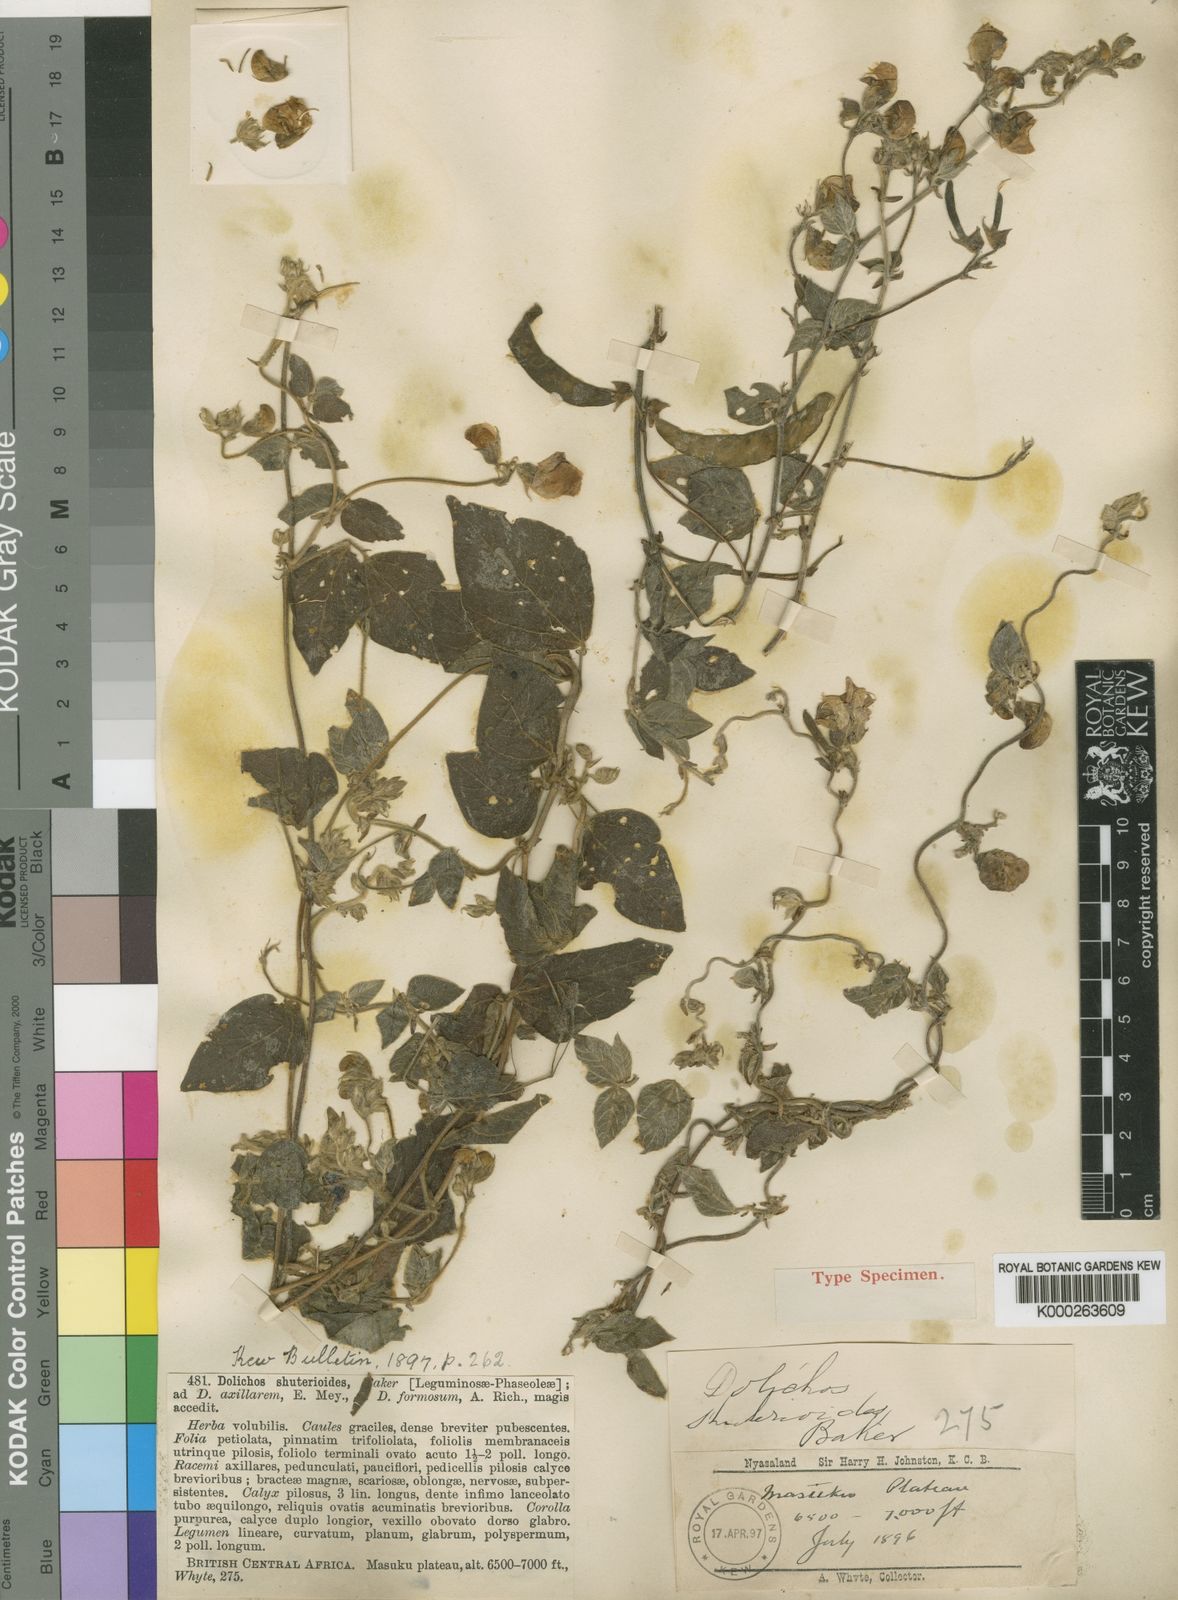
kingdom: Plantae
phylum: Tracheophyta
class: Magnoliopsida
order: Fabales
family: Fabaceae
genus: Dolichos
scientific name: Dolichos sericeus
